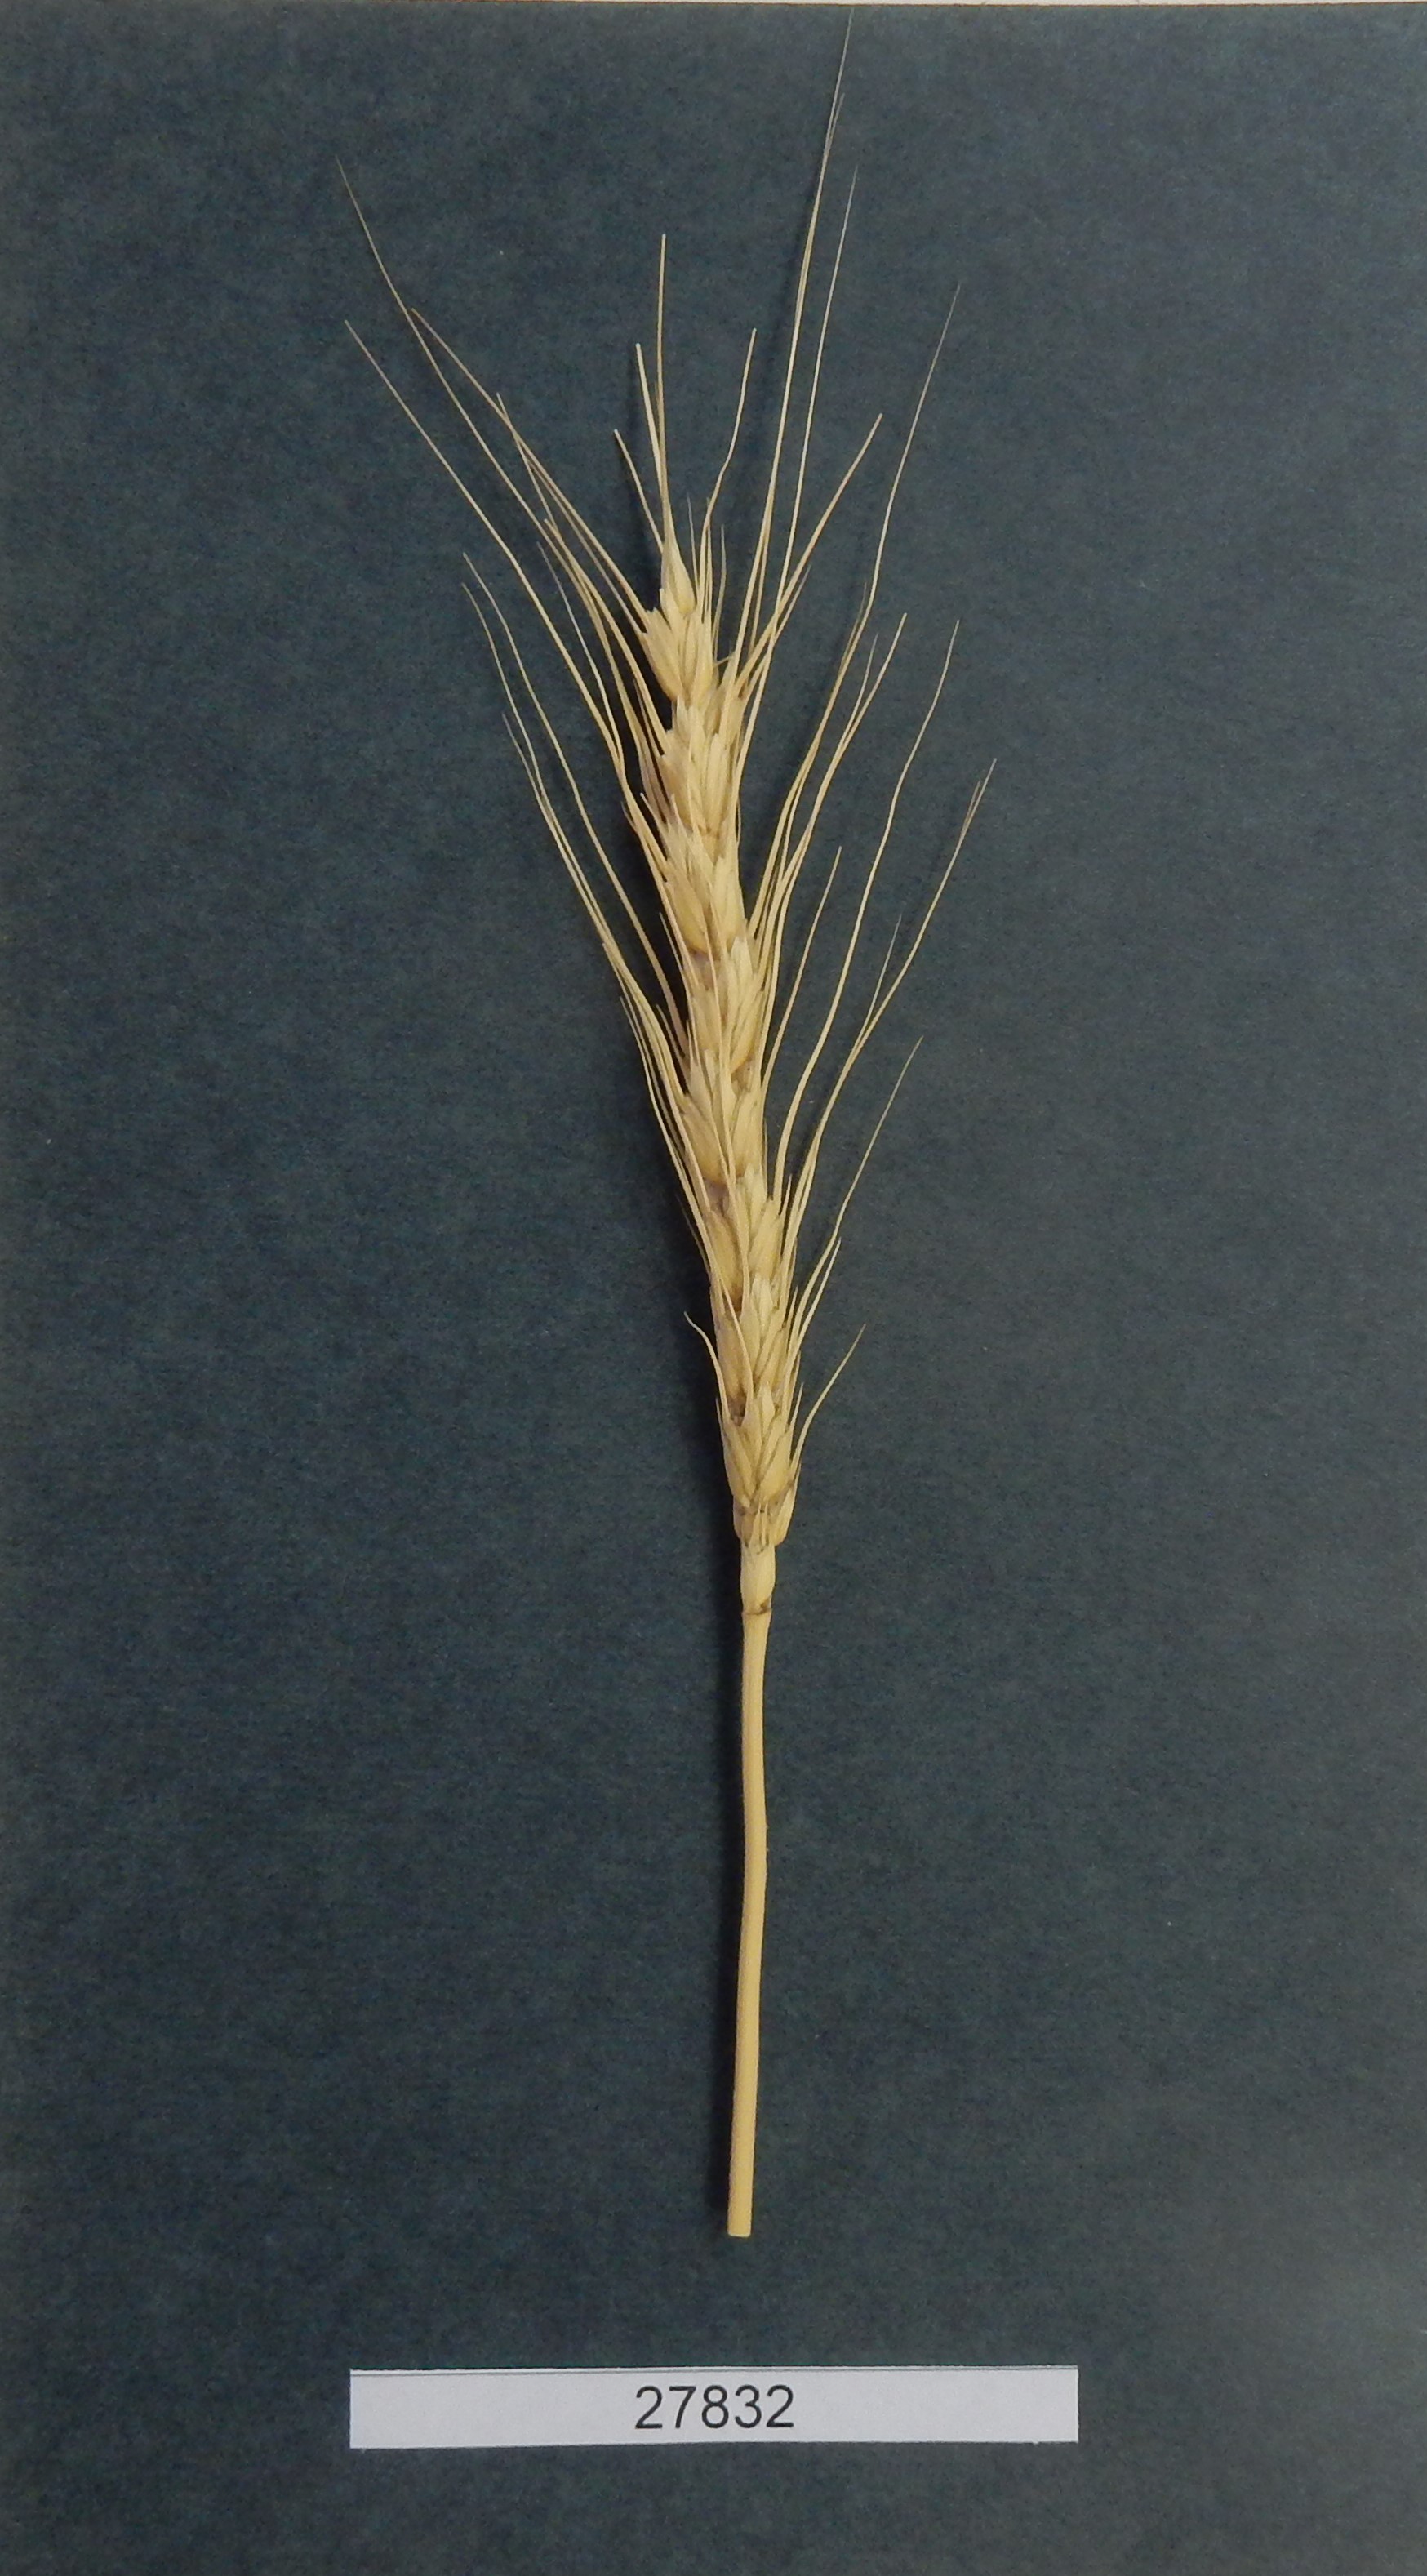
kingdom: Plantae
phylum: Tracheophyta
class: Liliopsida
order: Poales
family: Poaceae
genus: Triticum
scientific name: Triticum aestivum
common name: Common wheat
